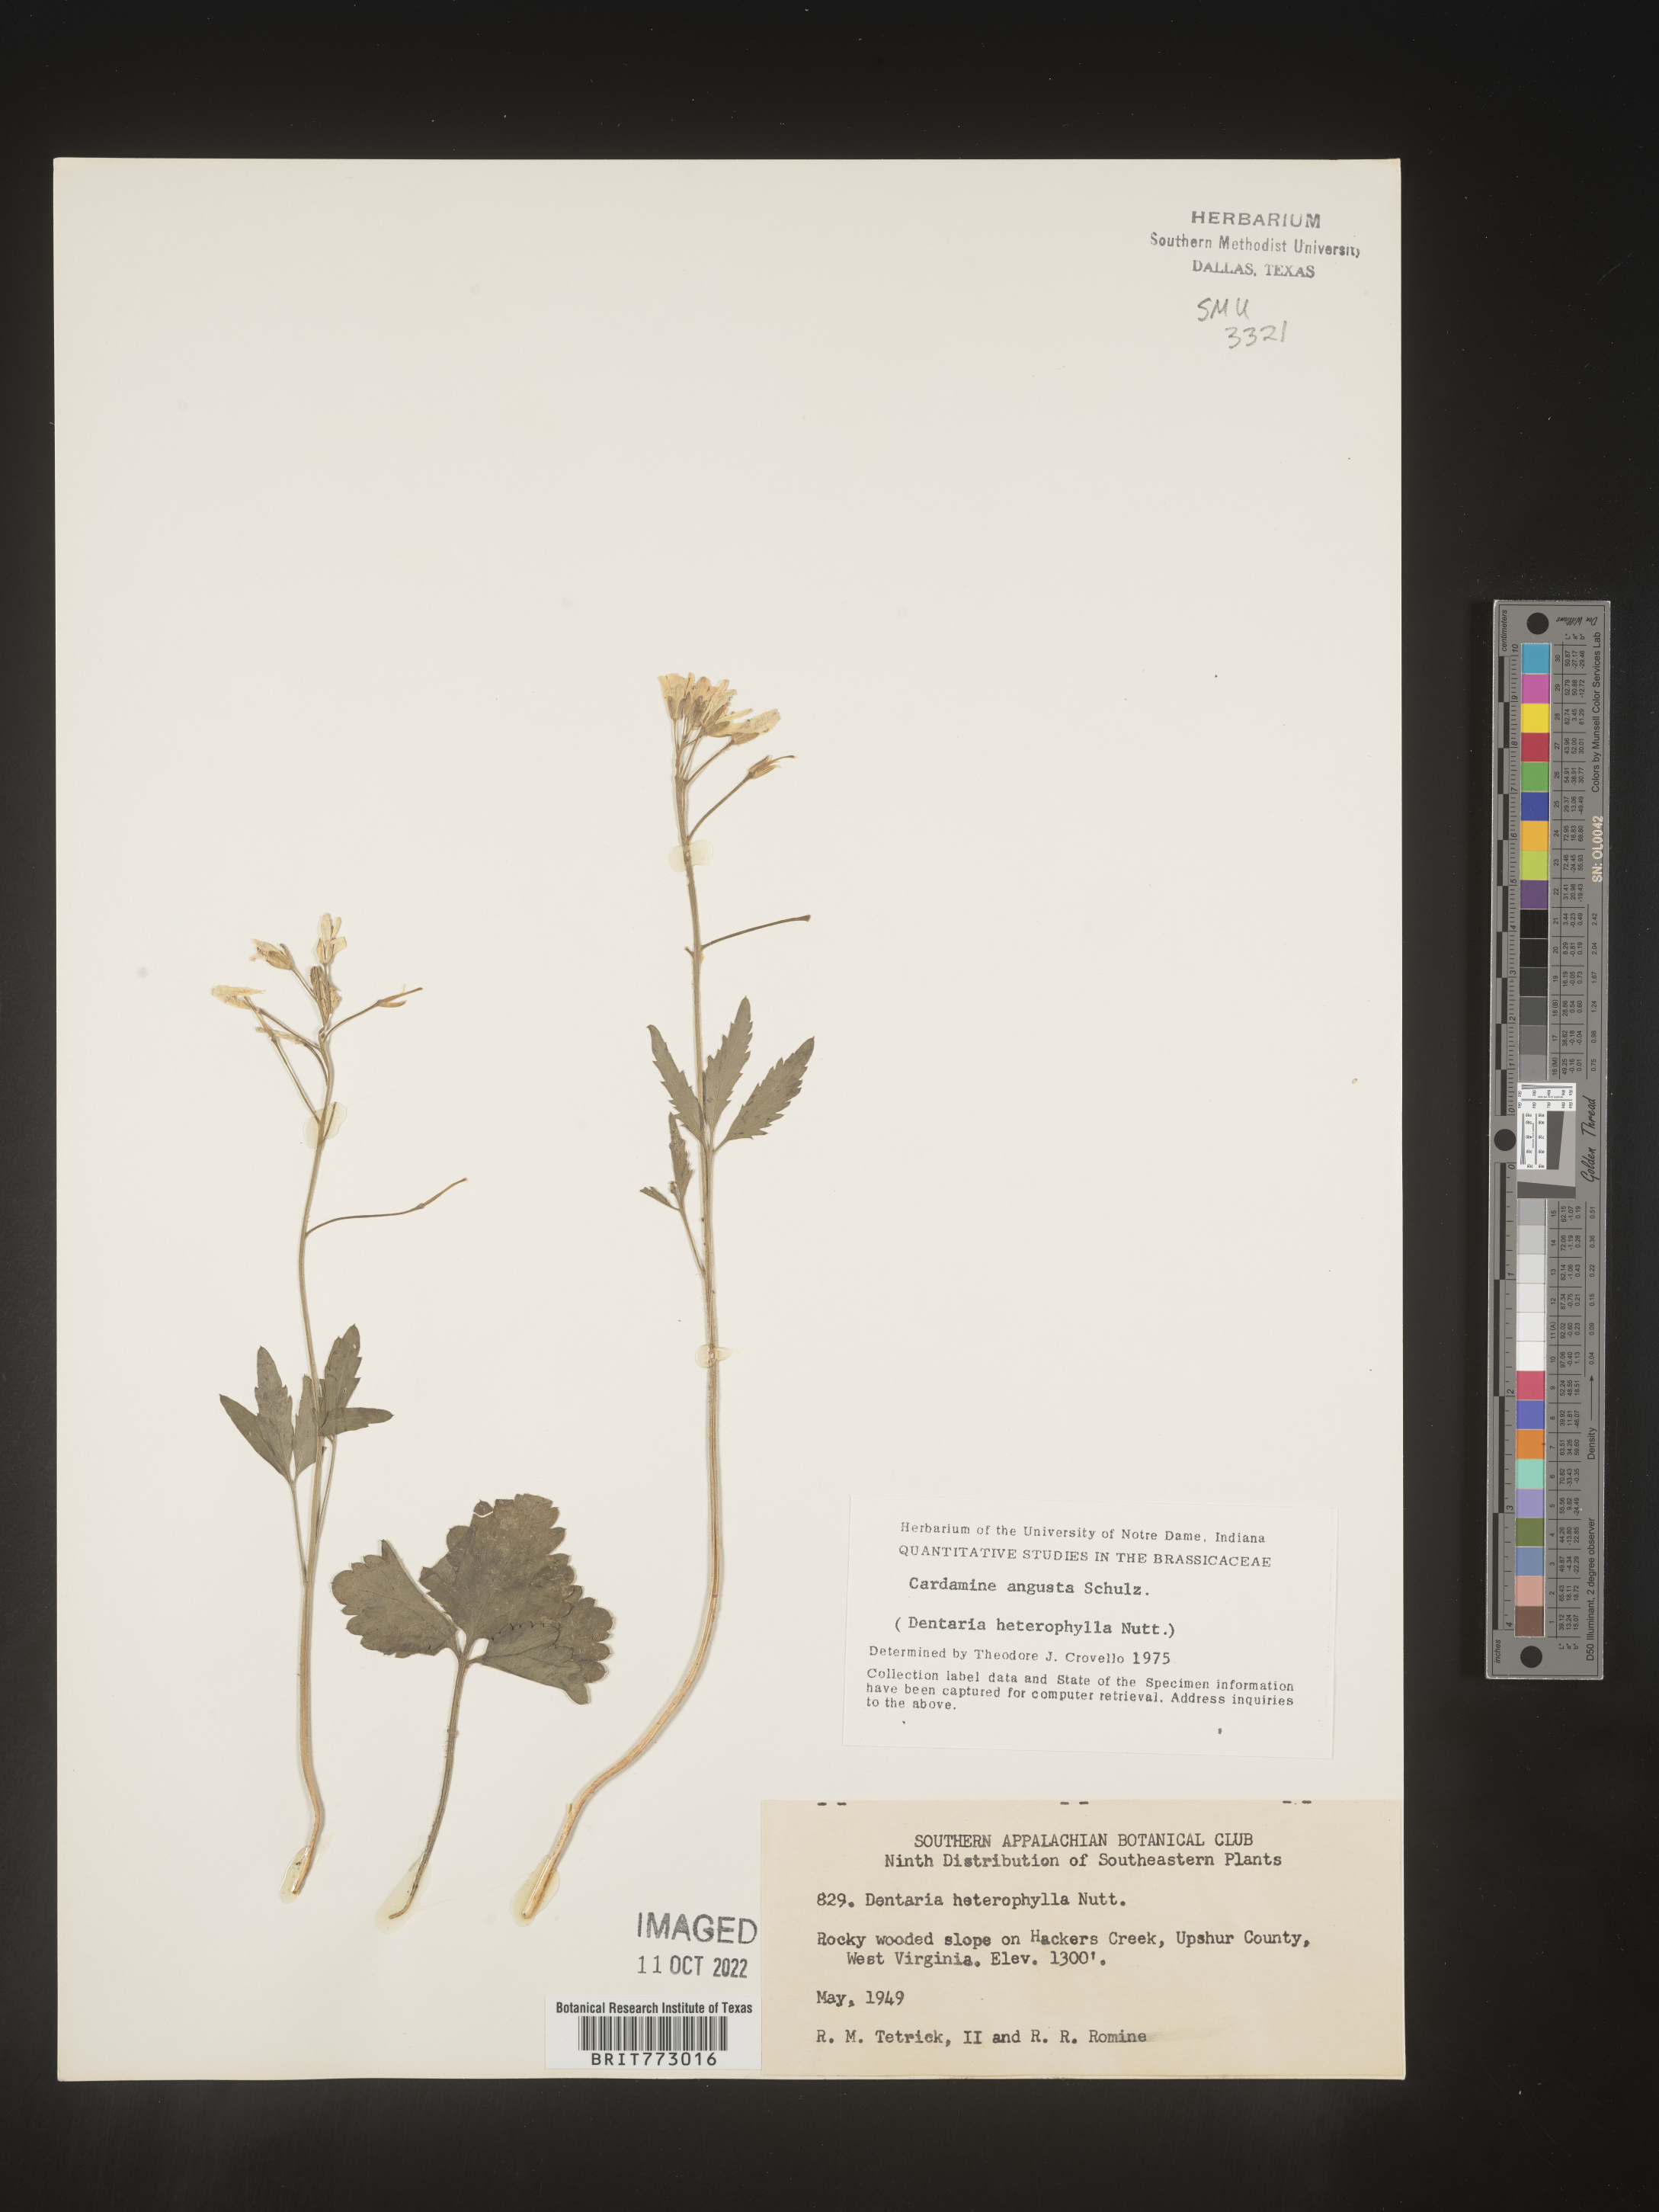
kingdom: Plantae
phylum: Tracheophyta
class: Magnoliopsida
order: Brassicales
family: Brassicaceae
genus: Cardamine
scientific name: Cardamine angustata
